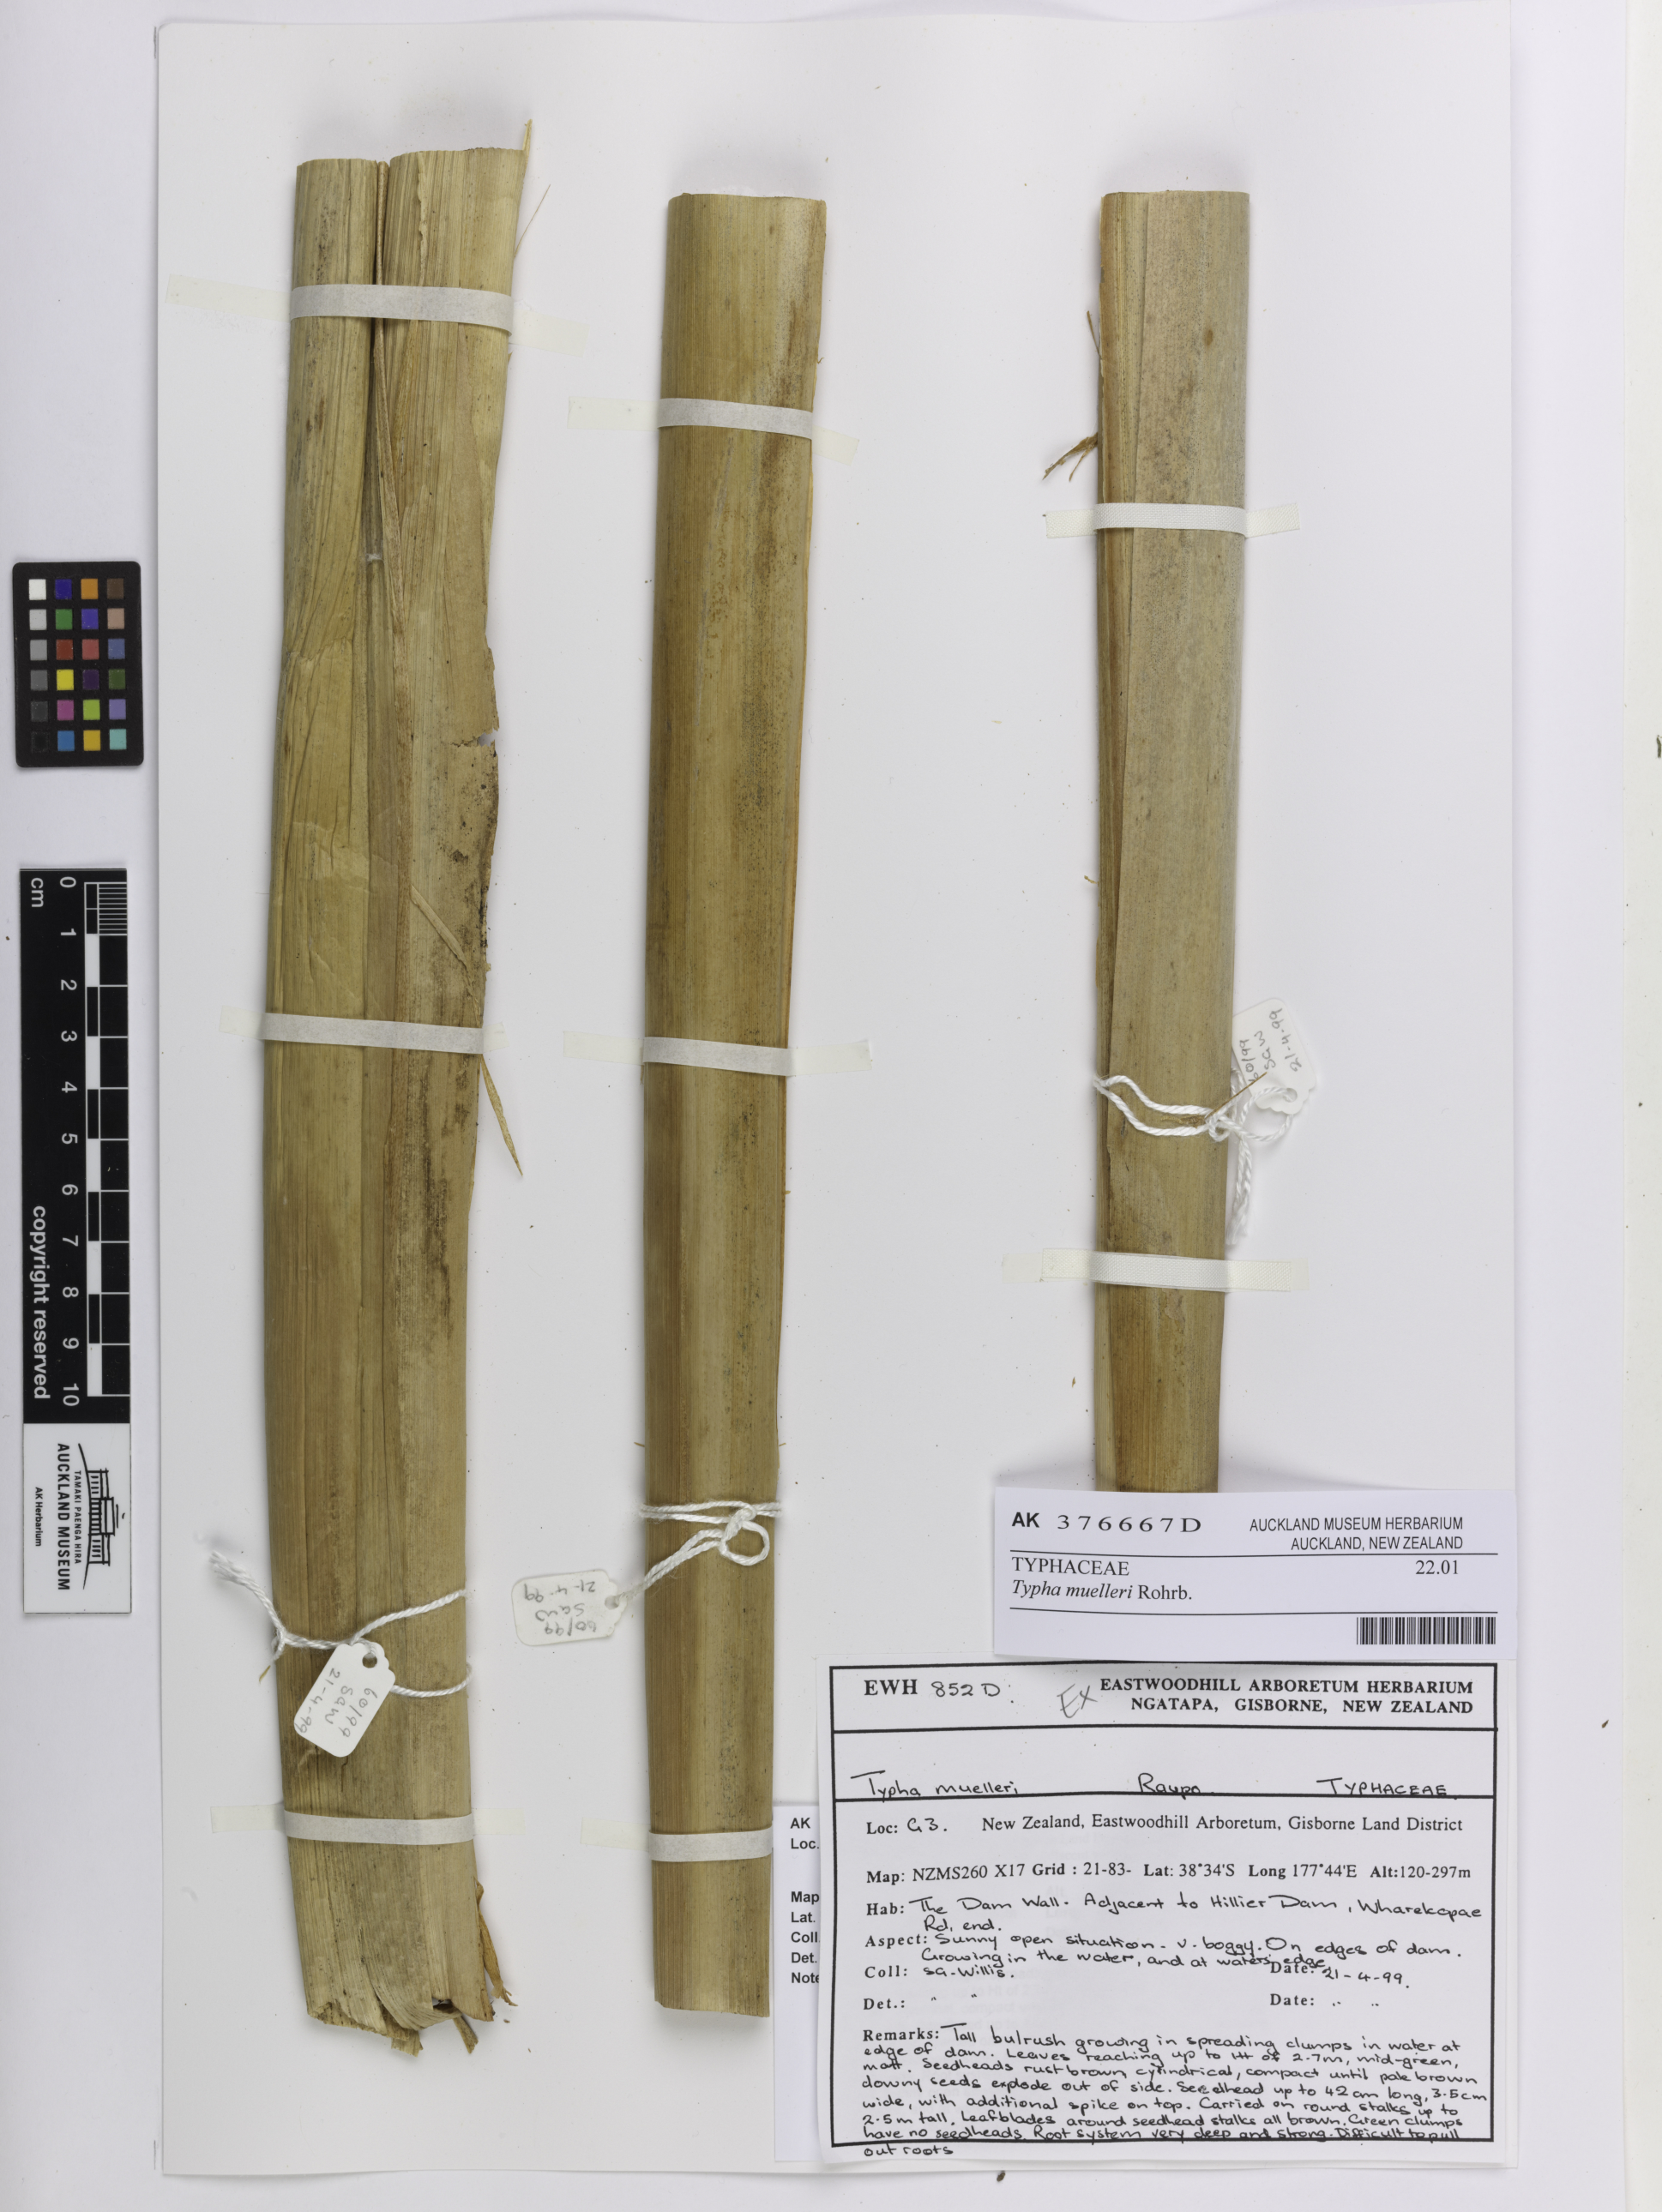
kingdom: Plantae
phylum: Tracheophyta
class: Liliopsida
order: Poales
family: Typhaceae
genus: Typha
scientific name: Typha orientalis
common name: Bullrush
